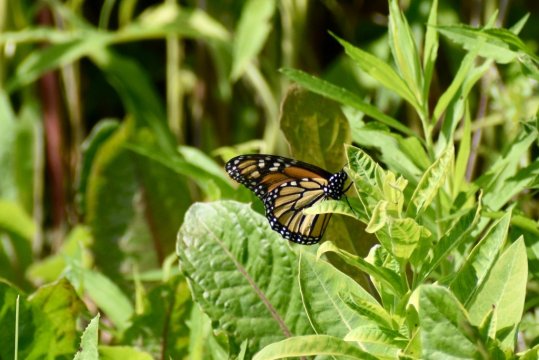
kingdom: Animalia
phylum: Arthropoda
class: Insecta
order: Lepidoptera
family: Nymphalidae
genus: Danaus
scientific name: Danaus plexippus
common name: Monarch
